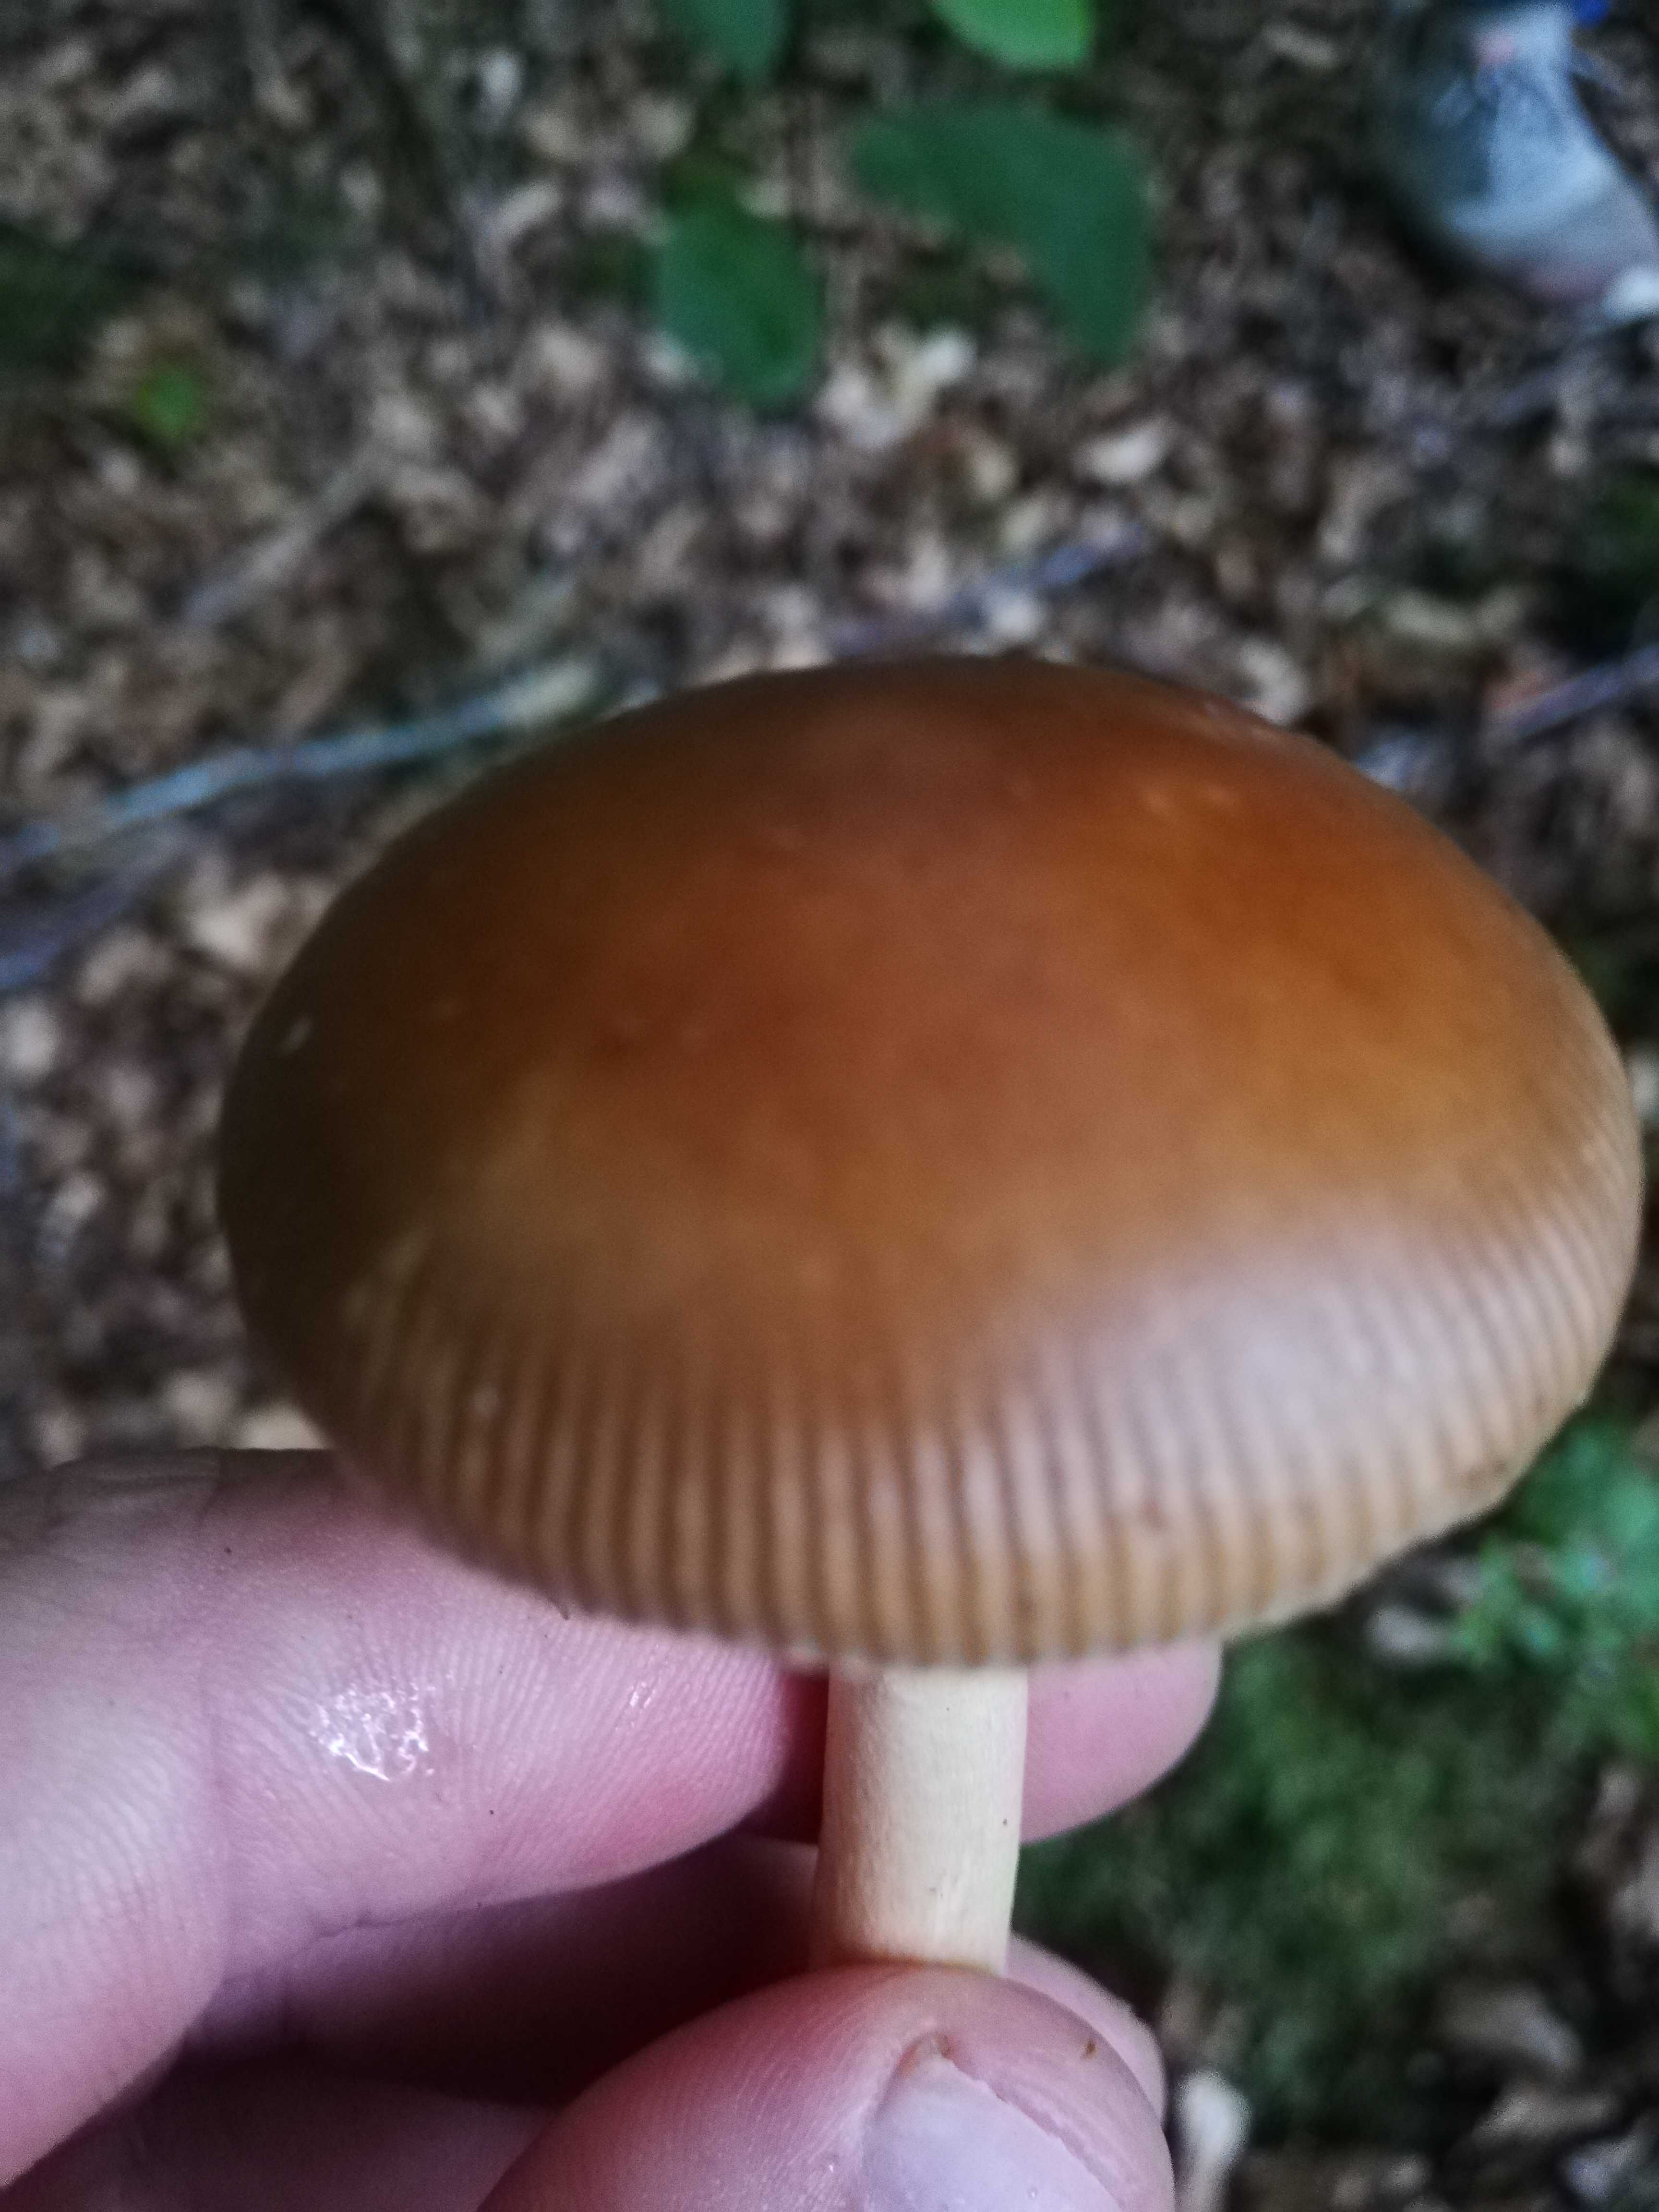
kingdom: Fungi
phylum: Basidiomycota
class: Agaricomycetes
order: Agaricales
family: Amanitaceae
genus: Amanita
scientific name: Amanita fulva
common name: brun kam-fluesvamp
